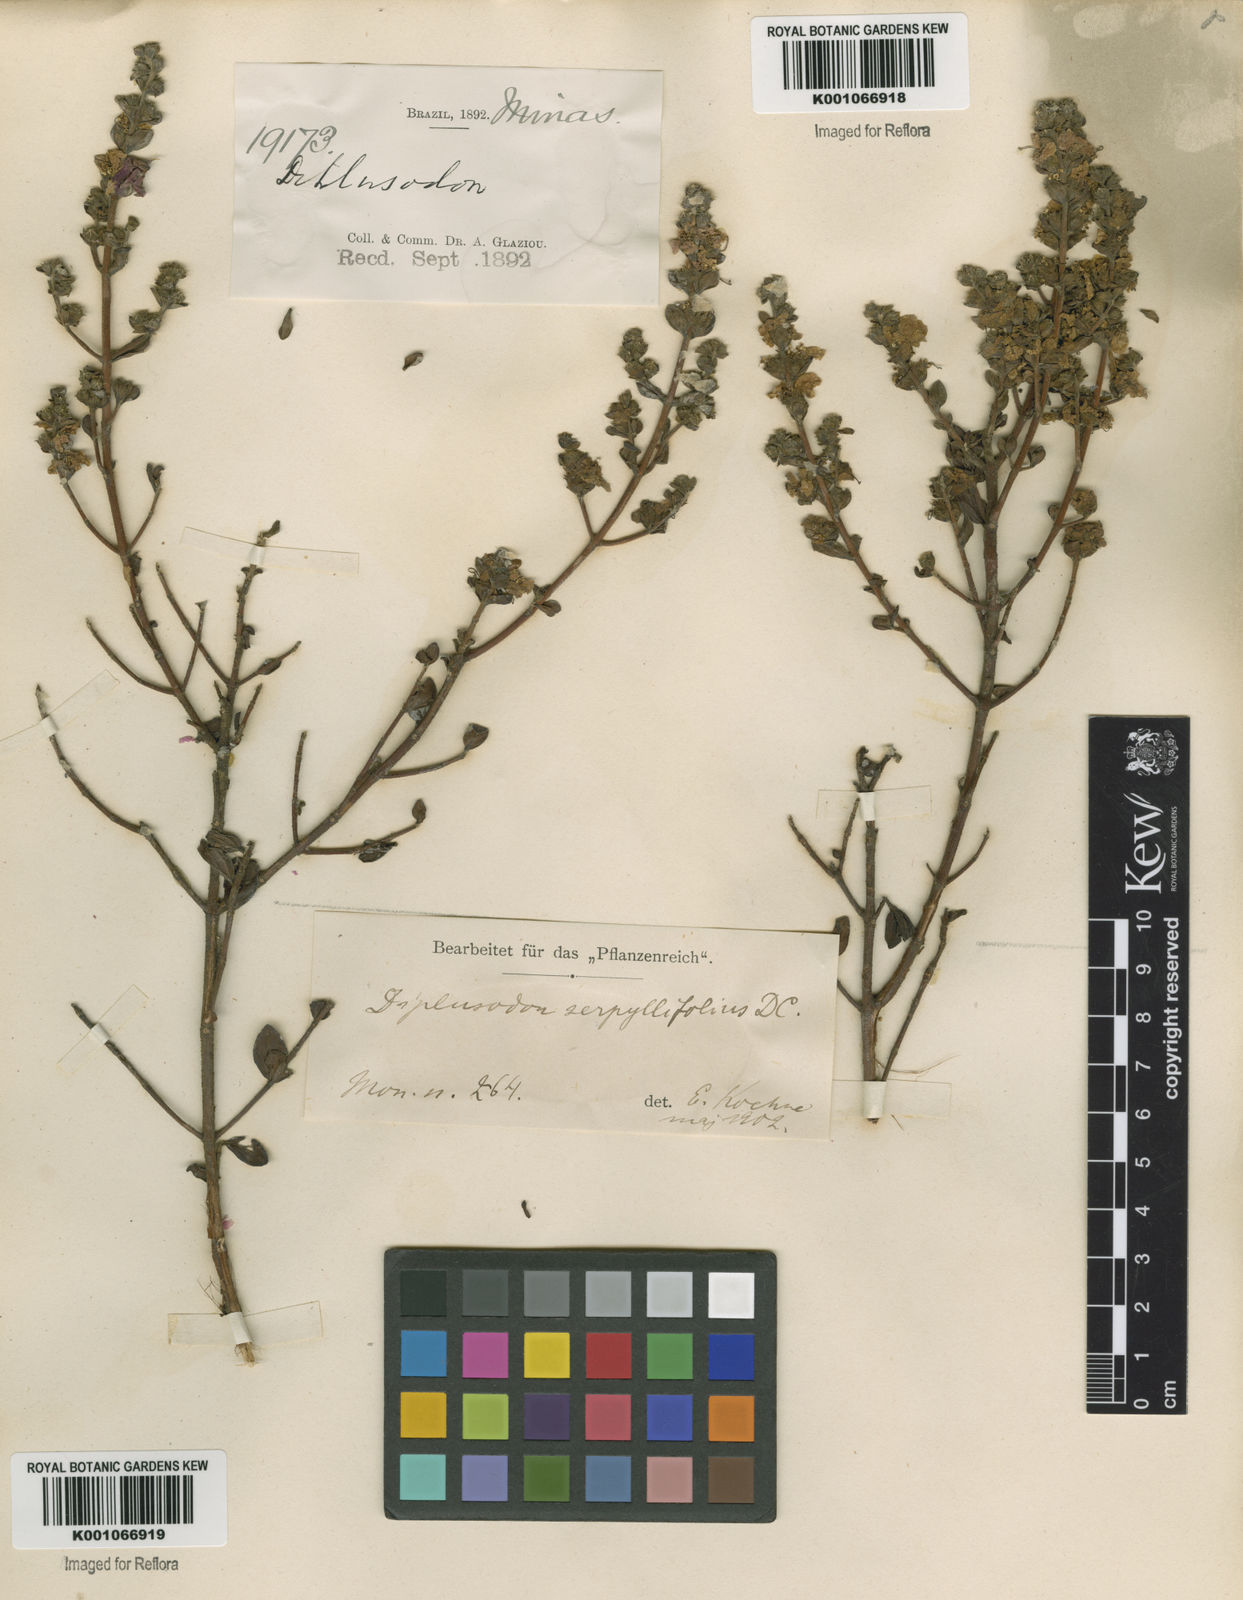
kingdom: Plantae
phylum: Tracheophyta
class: Magnoliopsida
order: Myrtales
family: Lythraceae
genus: Diplusodon
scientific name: Diplusodon hirsutus
